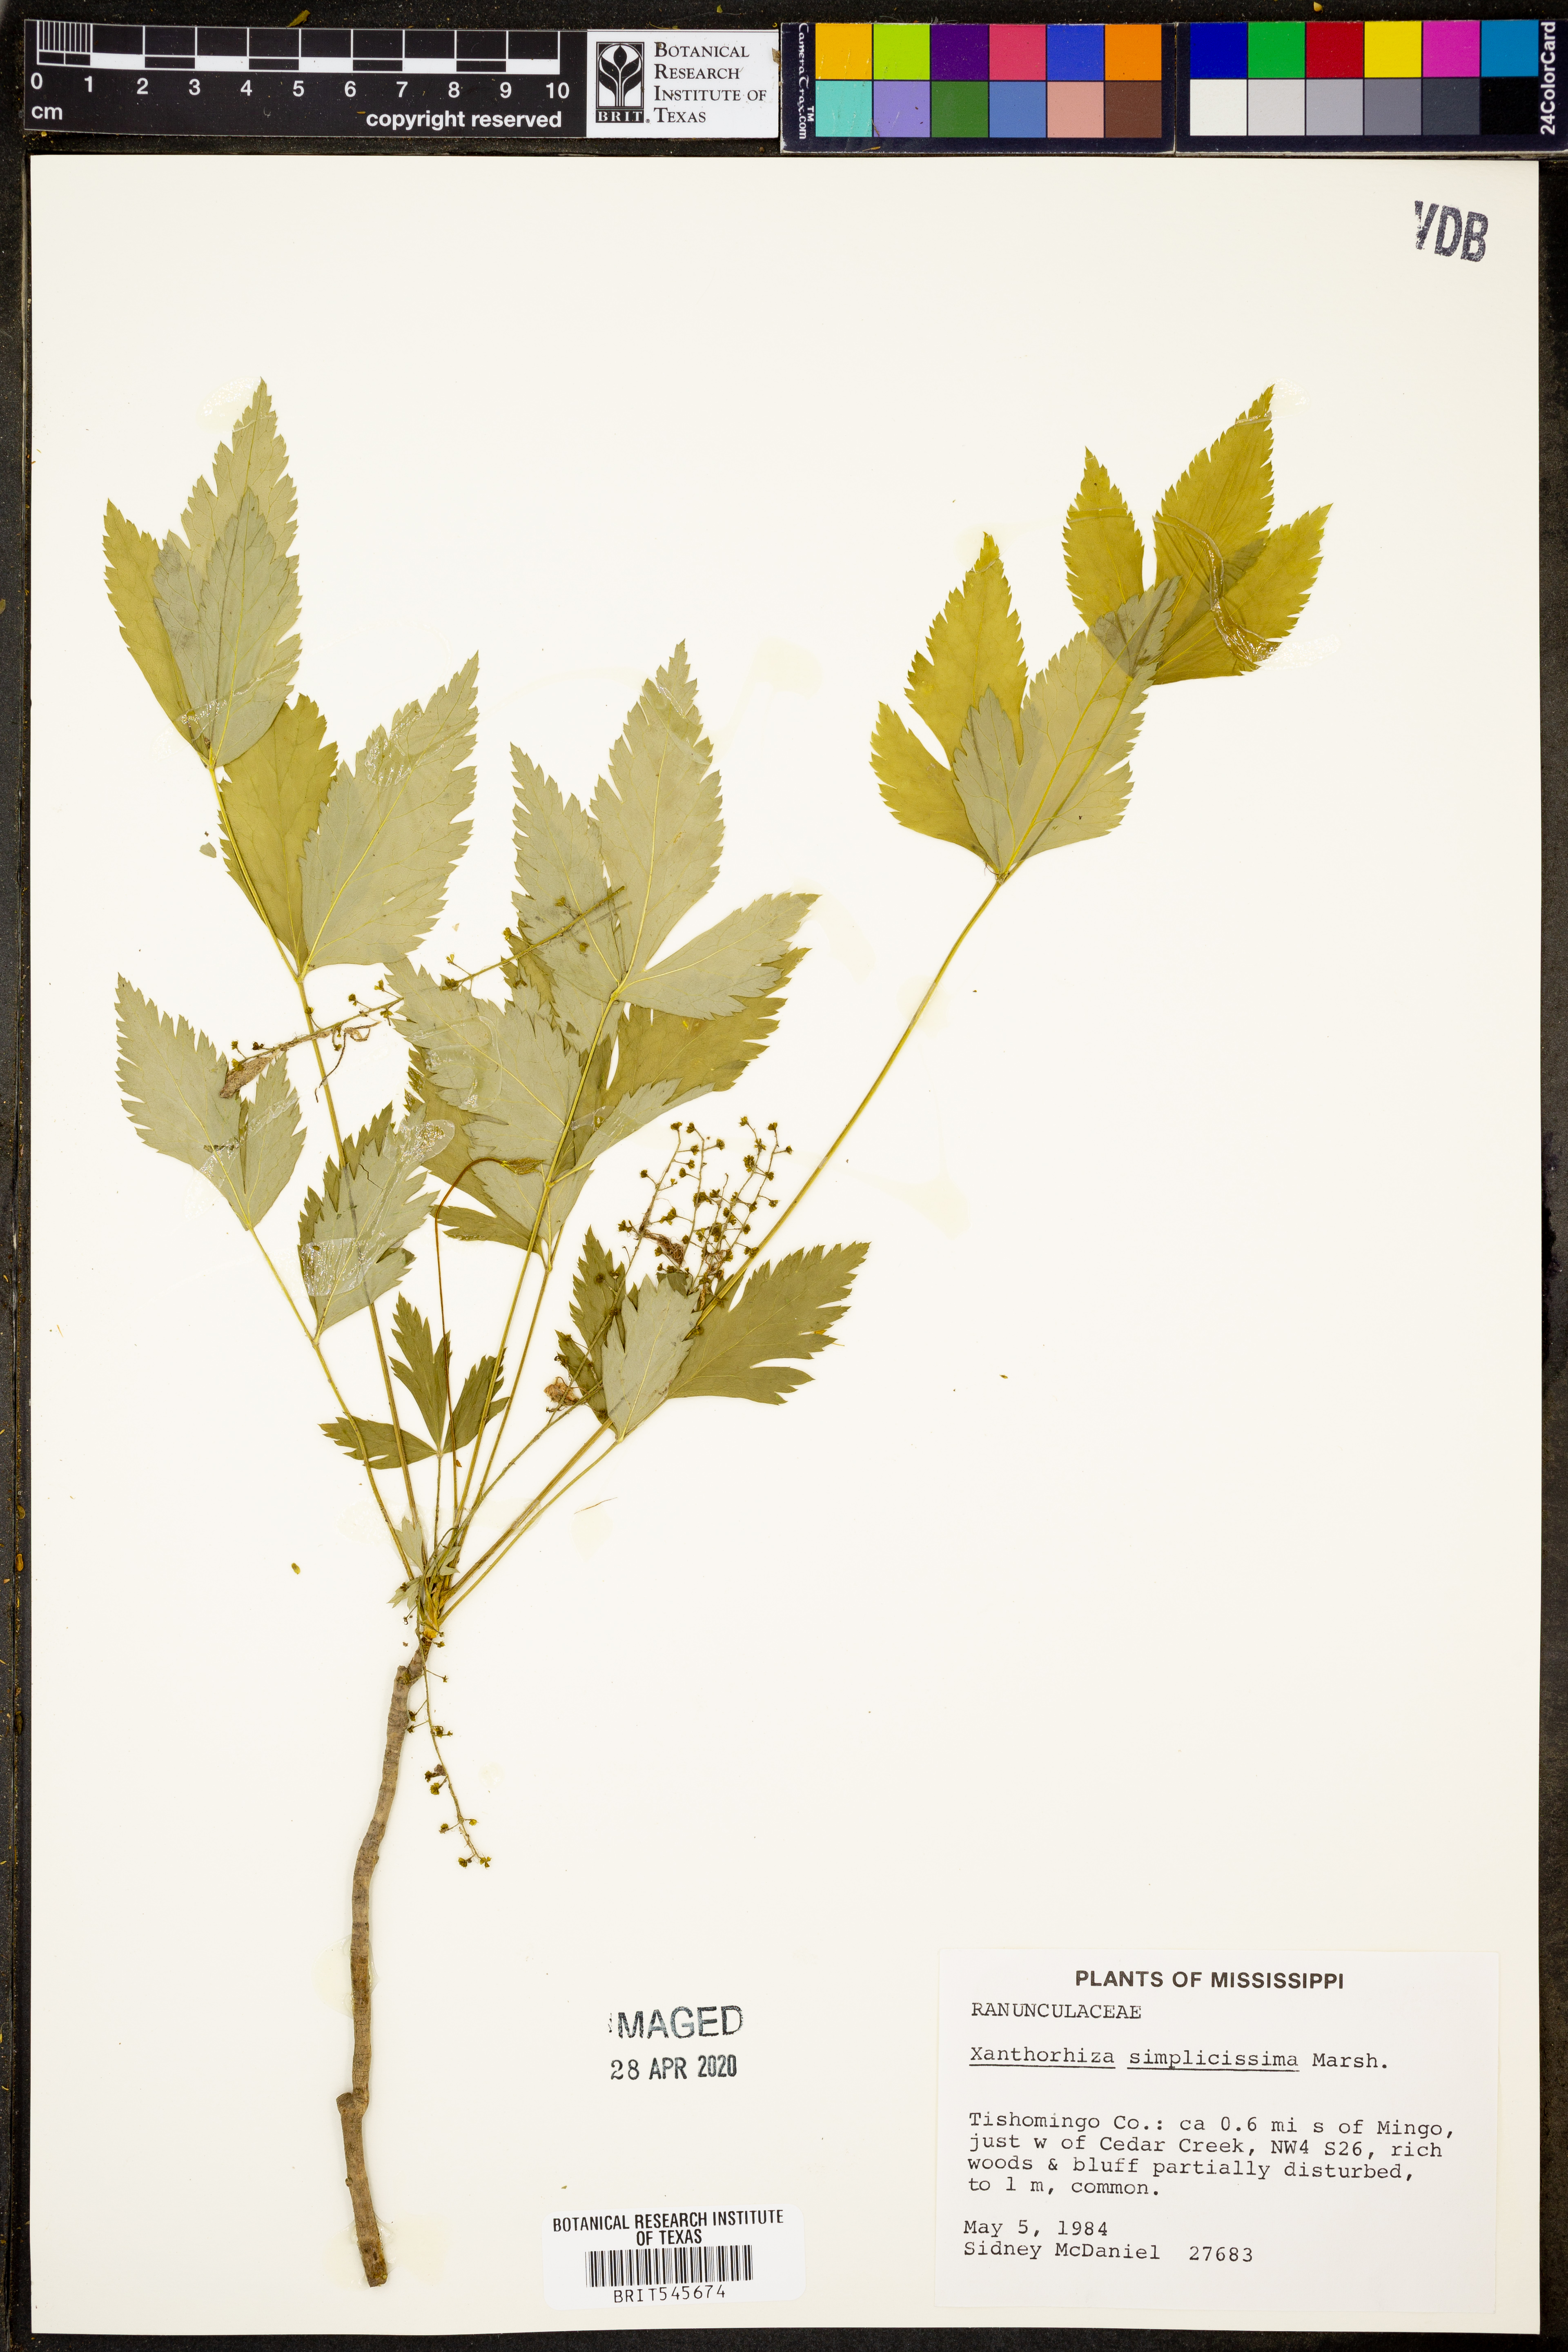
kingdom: Plantae
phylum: Tracheophyta
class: Magnoliopsida
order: Ranunculales
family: Ranunculaceae
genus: Xanthorhiza
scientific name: Xanthorhiza simplicissima
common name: Yellowroot
